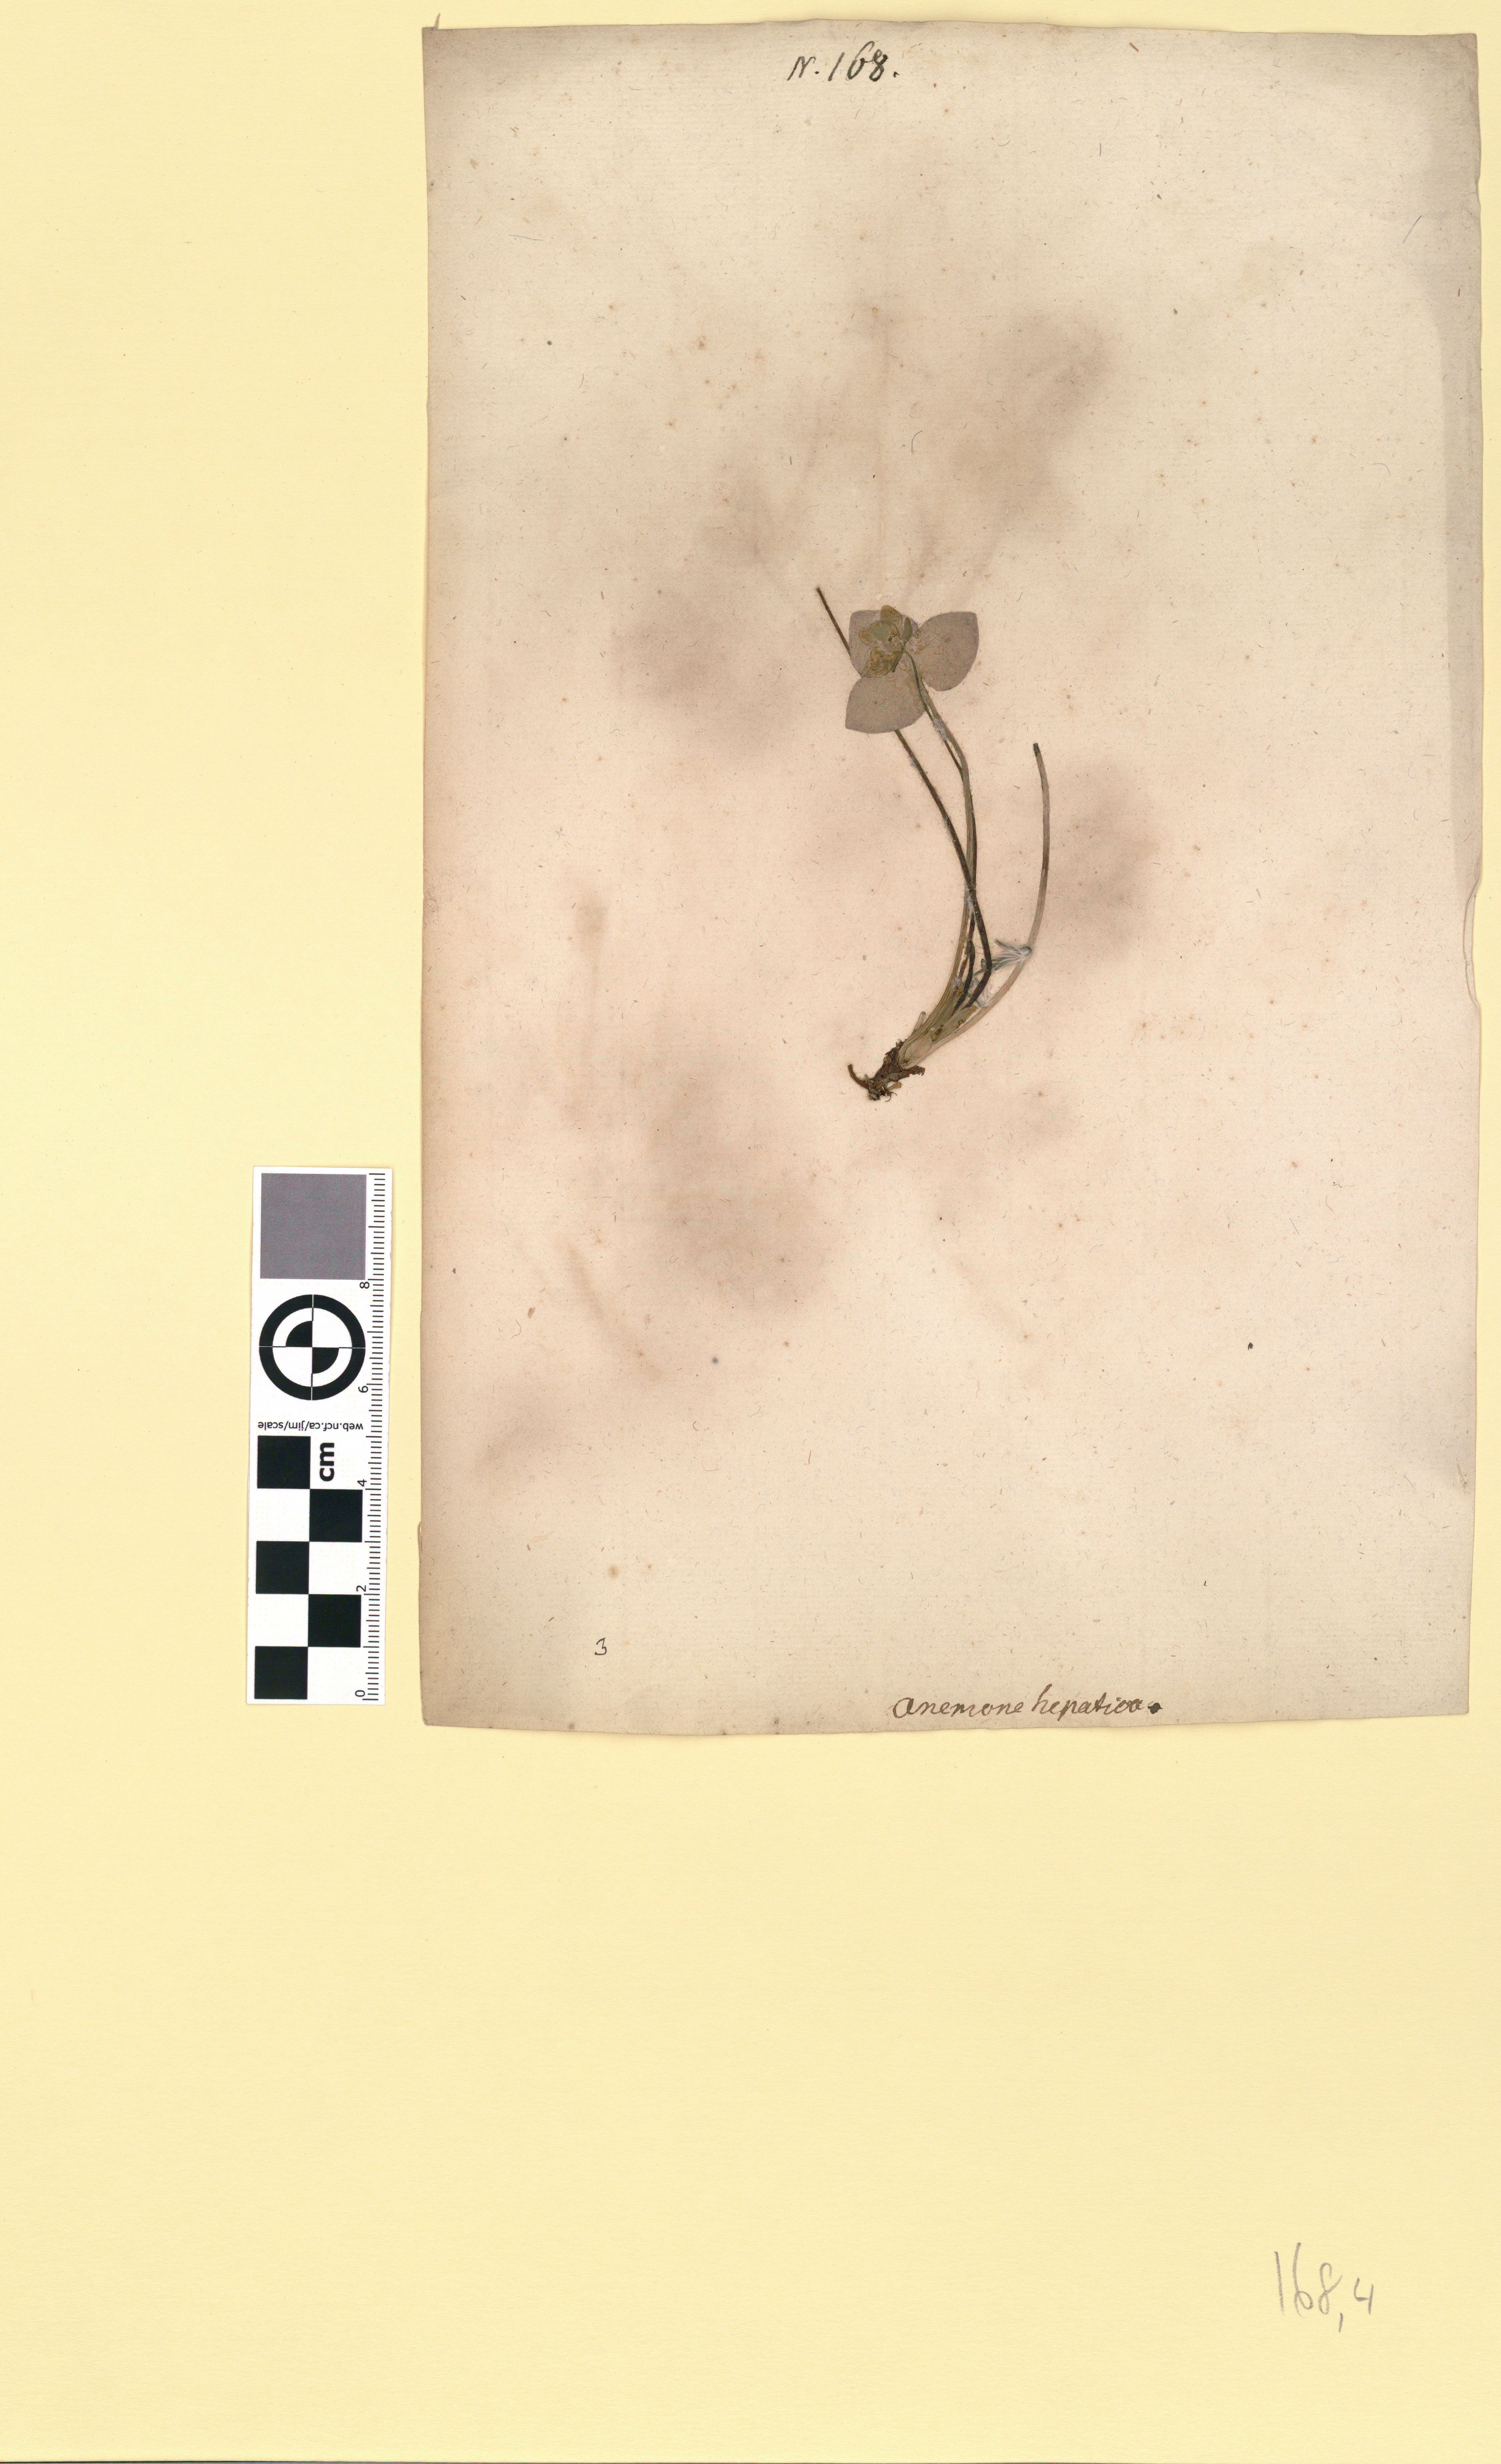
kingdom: Plantae
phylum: Tracheophyta
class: Magnoliopsida
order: Ranunculales
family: Ranunculaceae
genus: Hepatica
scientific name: Hepatica nobilis
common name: Liverleaf
